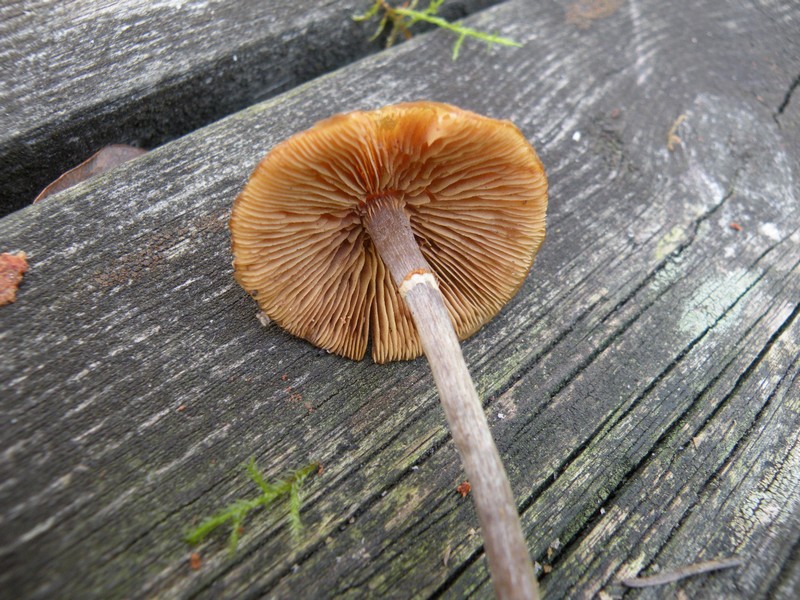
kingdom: Fungi
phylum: Basidiomycota
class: Agaricomycetes
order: Agaricales
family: Hymenogastraceae
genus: Galerina
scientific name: Galerina marginata
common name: randbæltet hjelmhat
